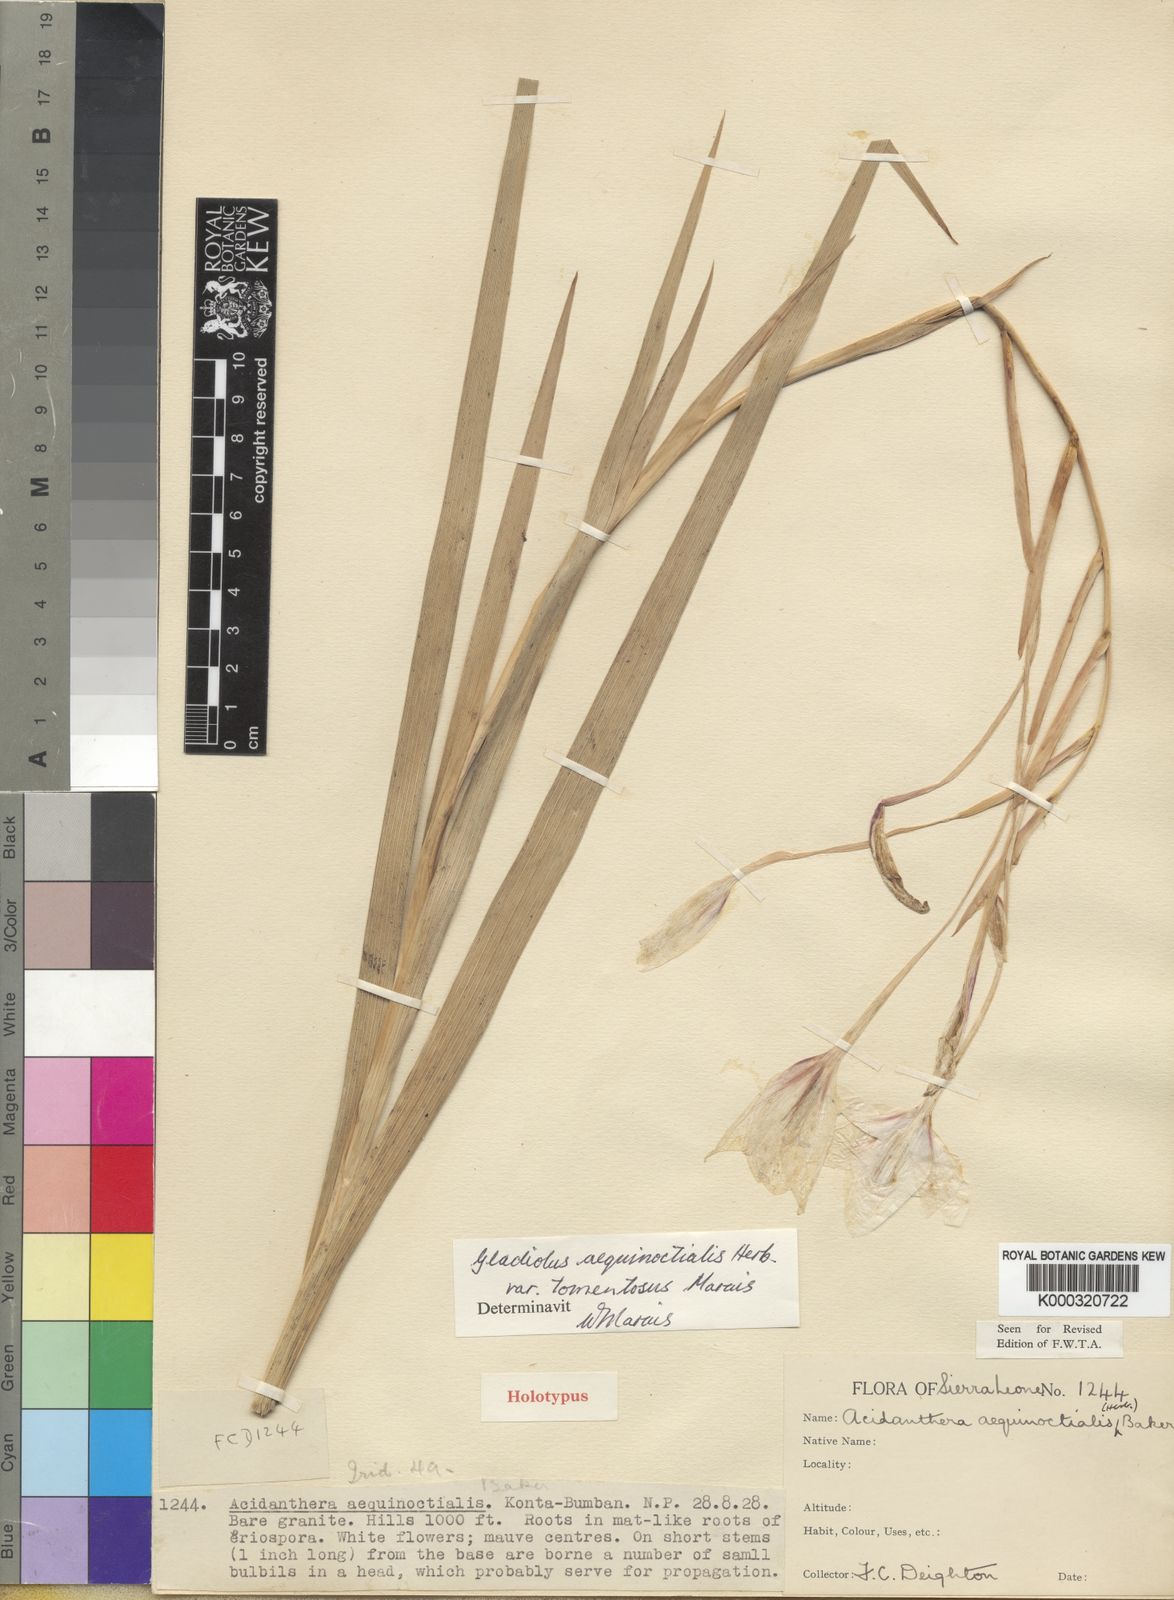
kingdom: Plantae
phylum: Tracheophyta
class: Liliopsida
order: Asparagales
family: Iridaceae
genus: Gladiolus
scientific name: Gladiolus aequinoctialis
